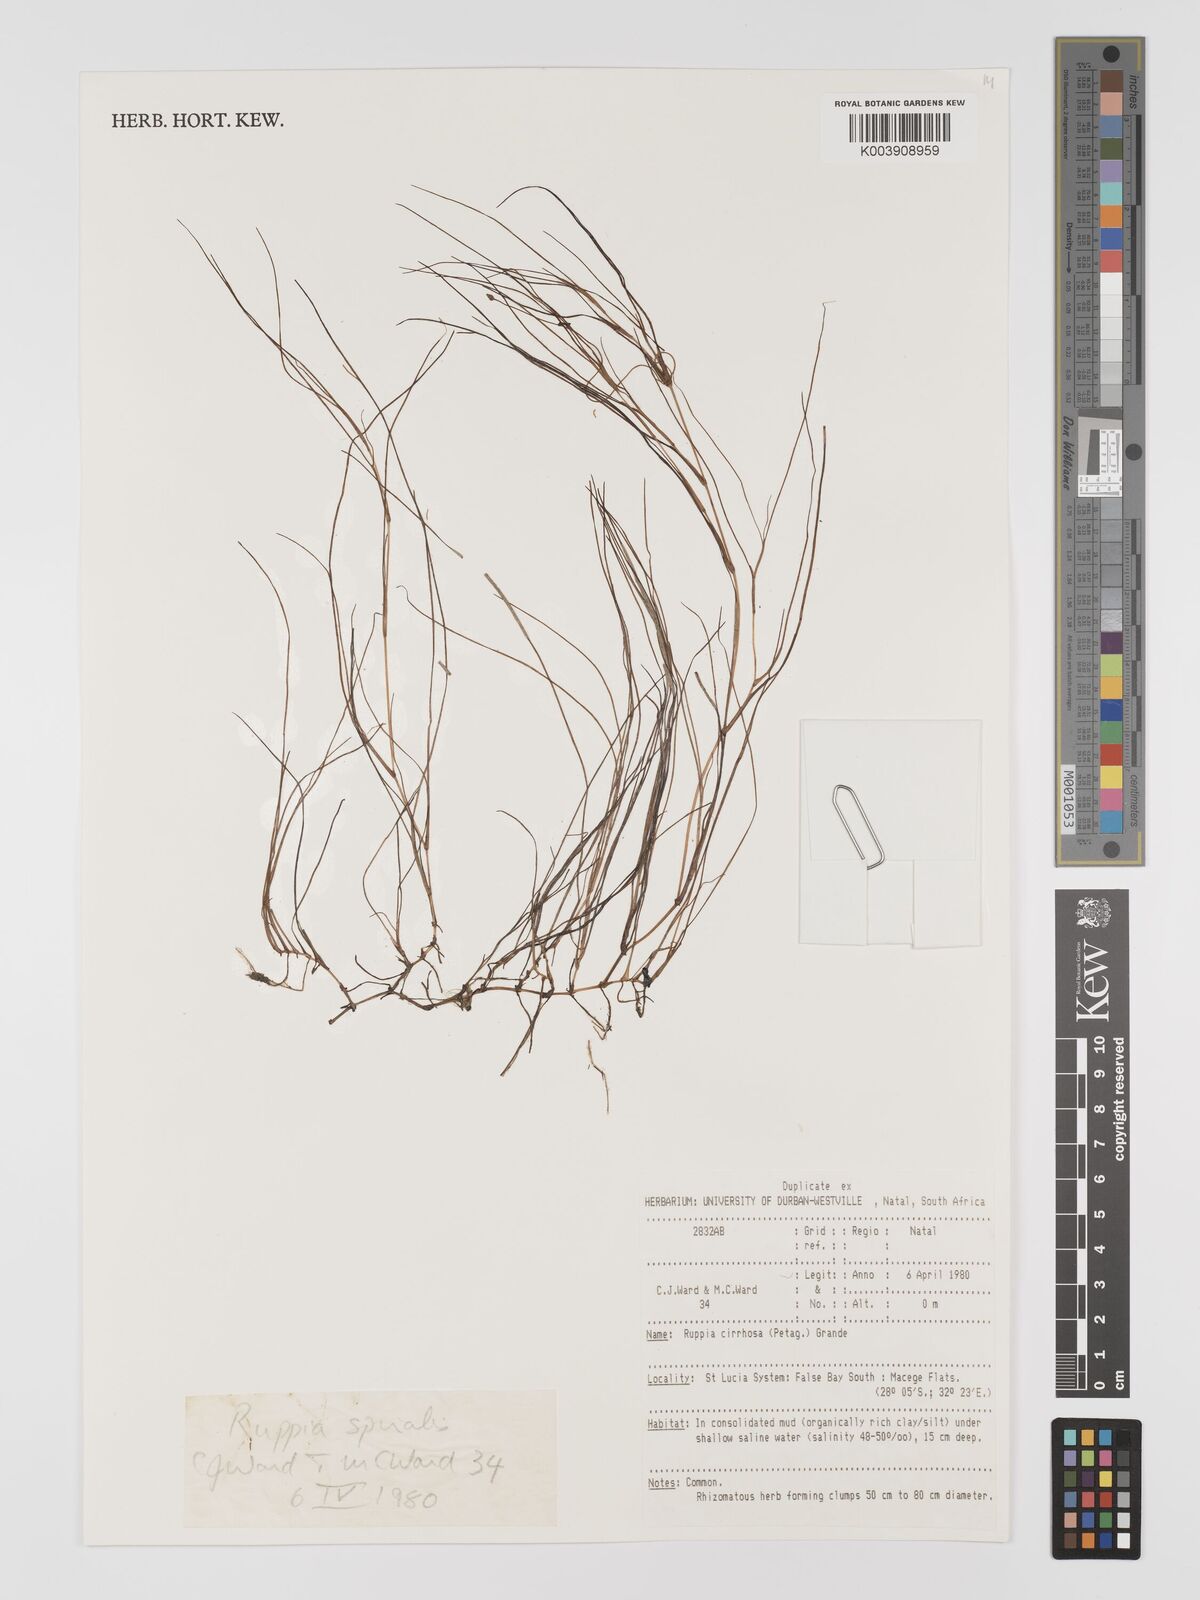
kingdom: Plantae
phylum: Tracheophyta
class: Liliopsida
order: Alismatales
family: Ruppiaceae
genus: Ruppia
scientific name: Ruppia cirrhosa
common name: Spiral tasselweed
